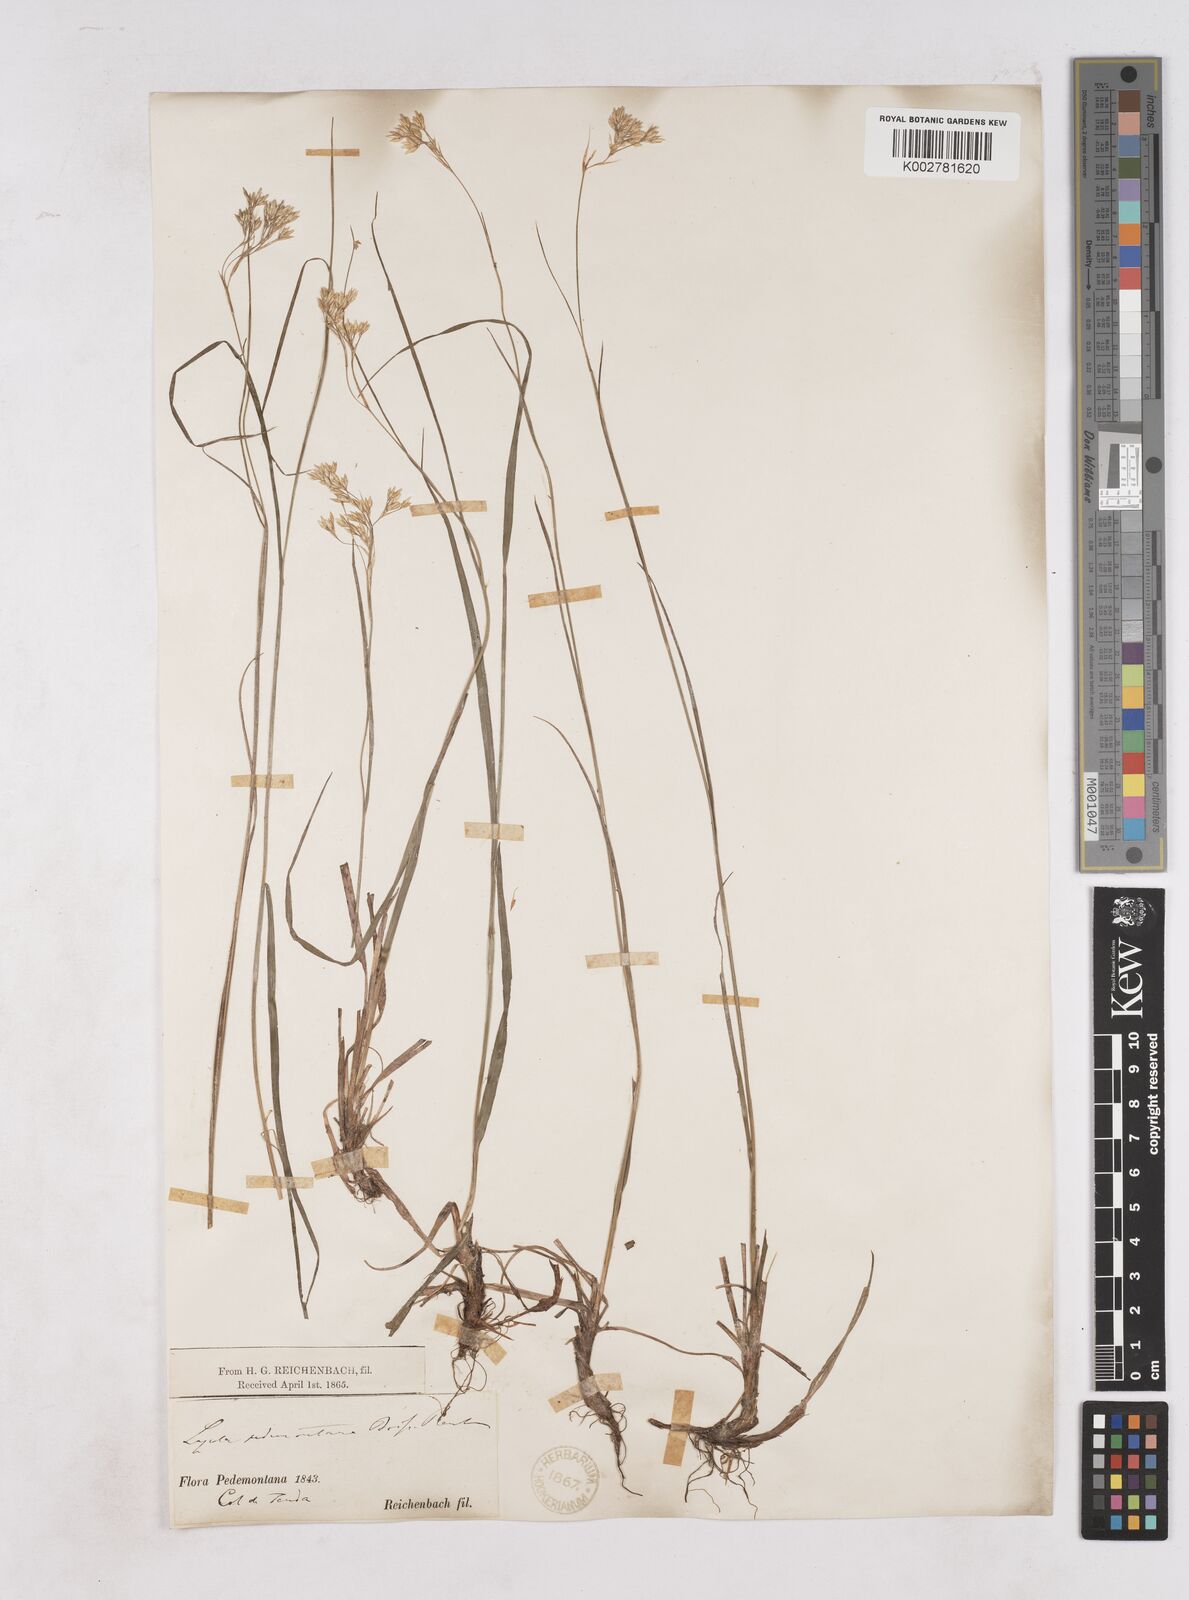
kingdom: Plantae
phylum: Tracheophyta
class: Liliopsida
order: Poales
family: Juncaceae
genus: Luzula
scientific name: Luzula pedemontana
